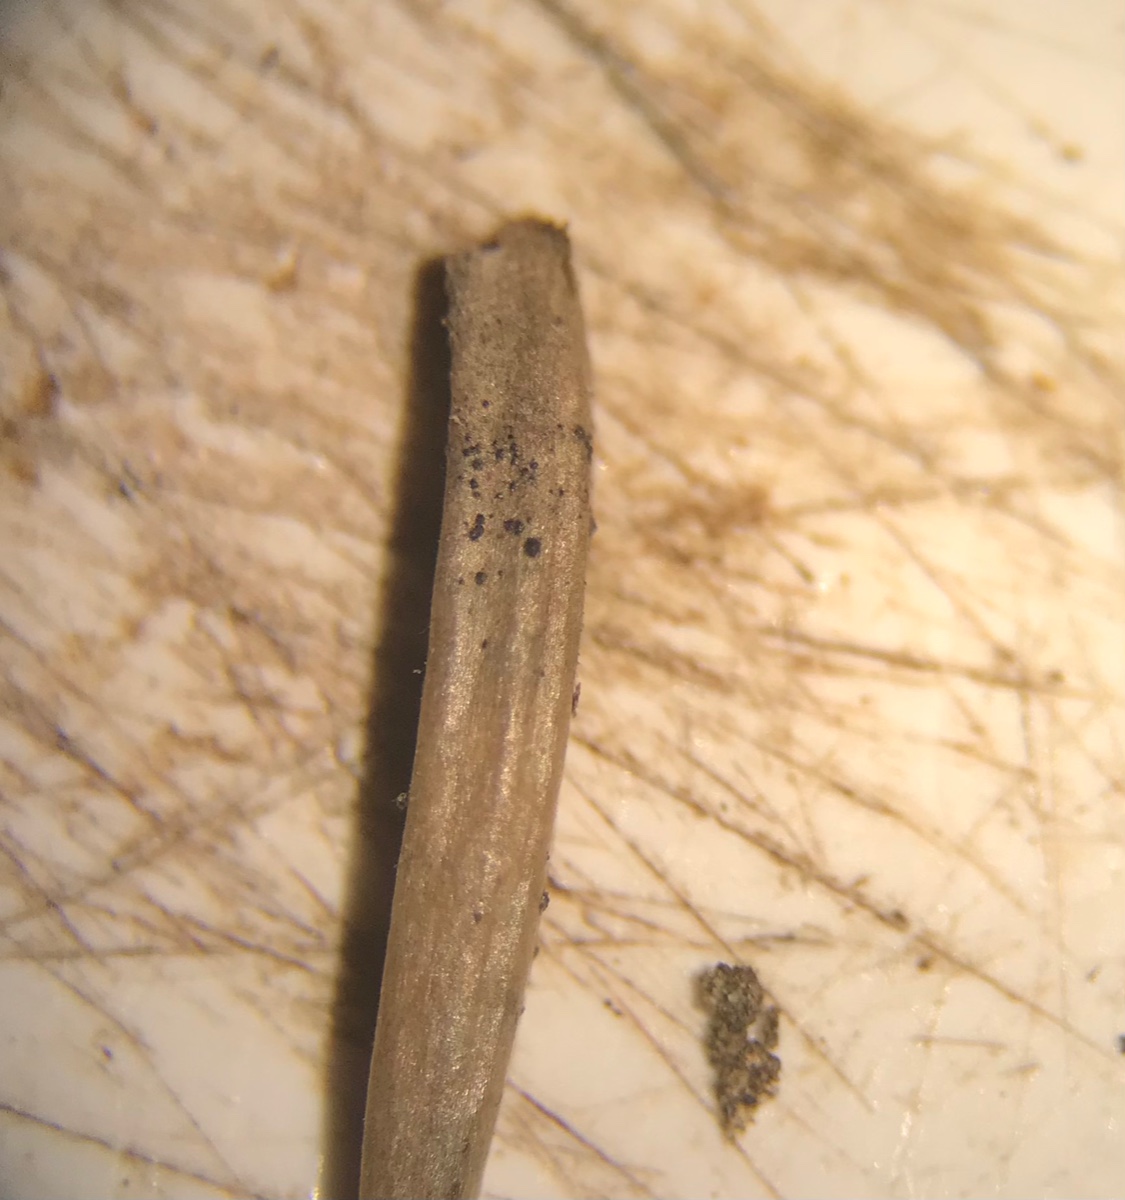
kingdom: Plantae
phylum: Bryophyta
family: Dothideomycetes
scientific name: Dothideomycetes
